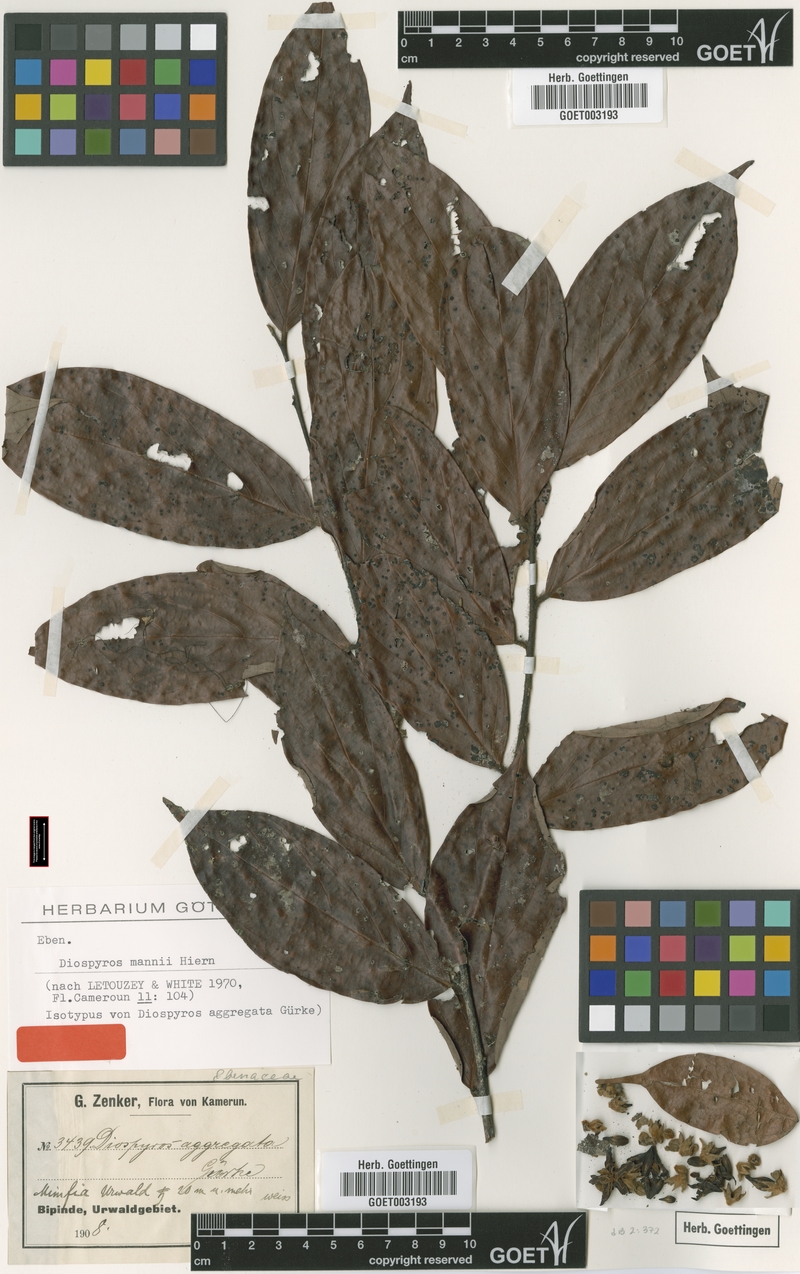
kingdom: Plantae
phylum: Tracheophyta
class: Magnoliopsida
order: Ericales
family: Ebenaceae
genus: Diospyros
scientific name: Diospyros mannii
